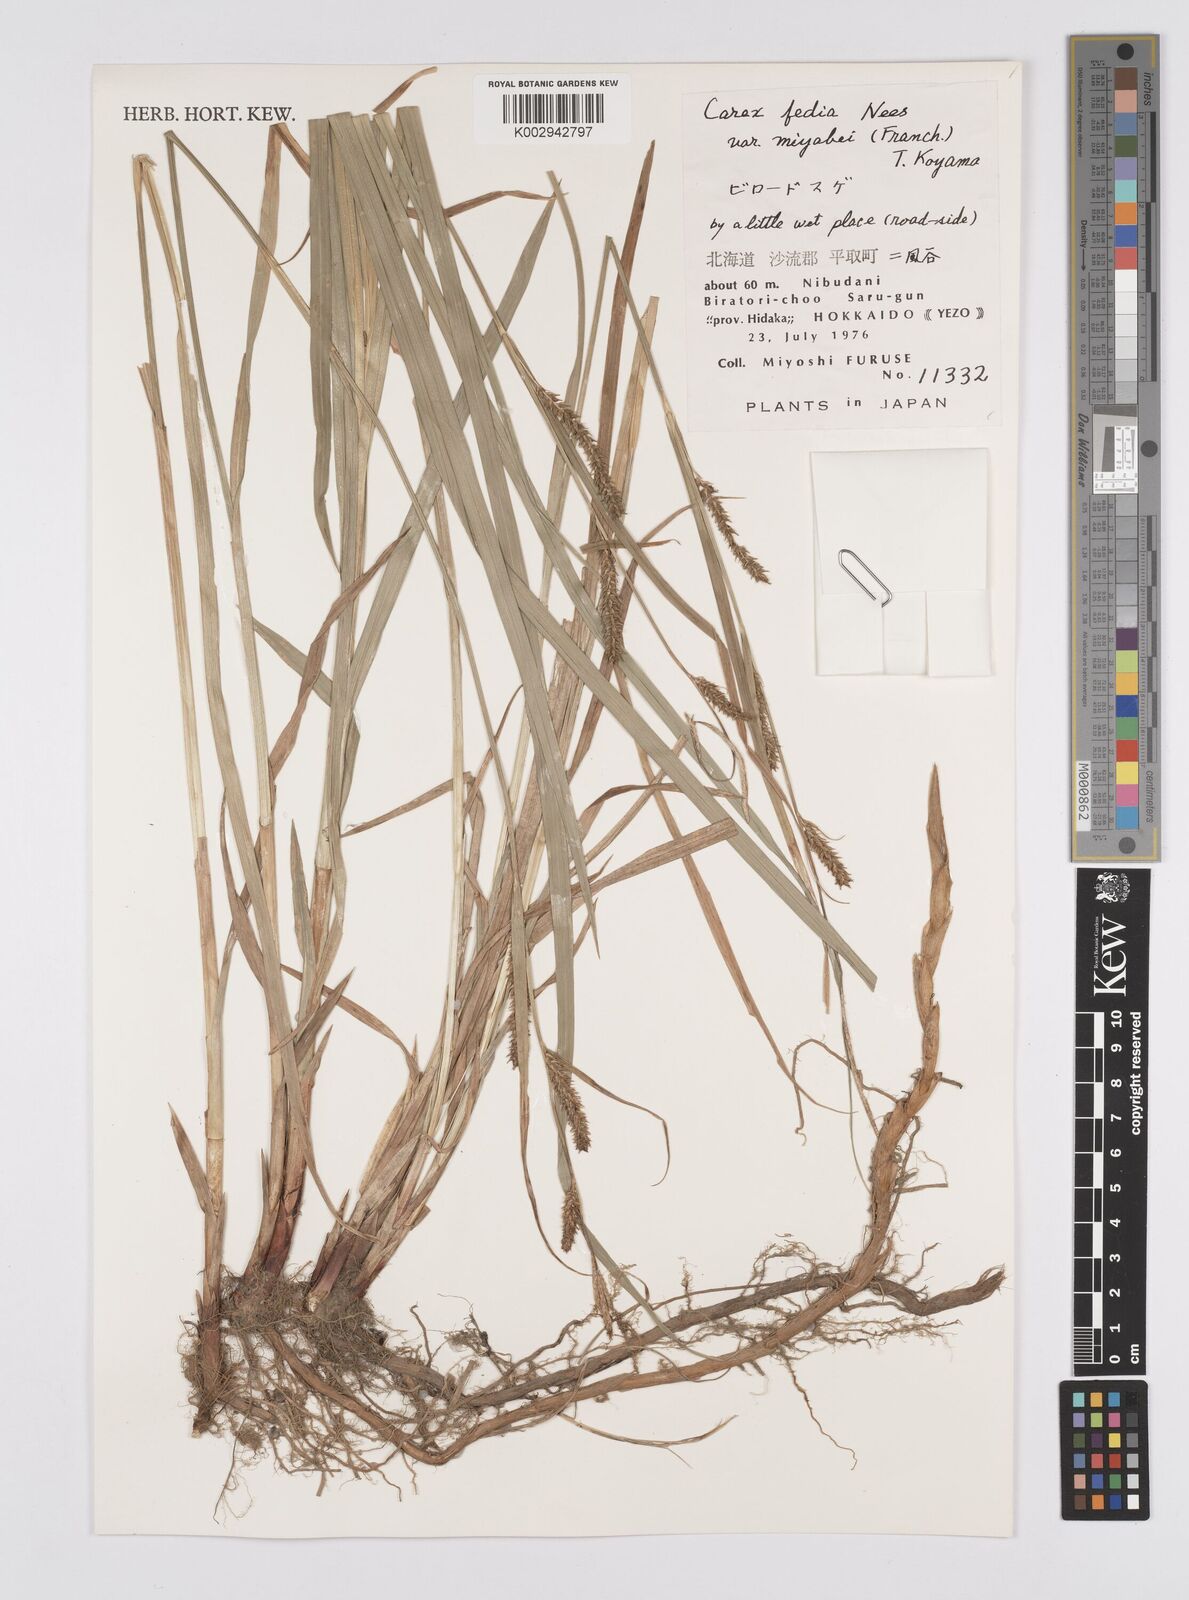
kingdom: Plantae
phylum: Tracheophyta
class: Liliopsida
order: Poales
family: Cyperaceae
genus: Carex
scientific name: Carex fedia
